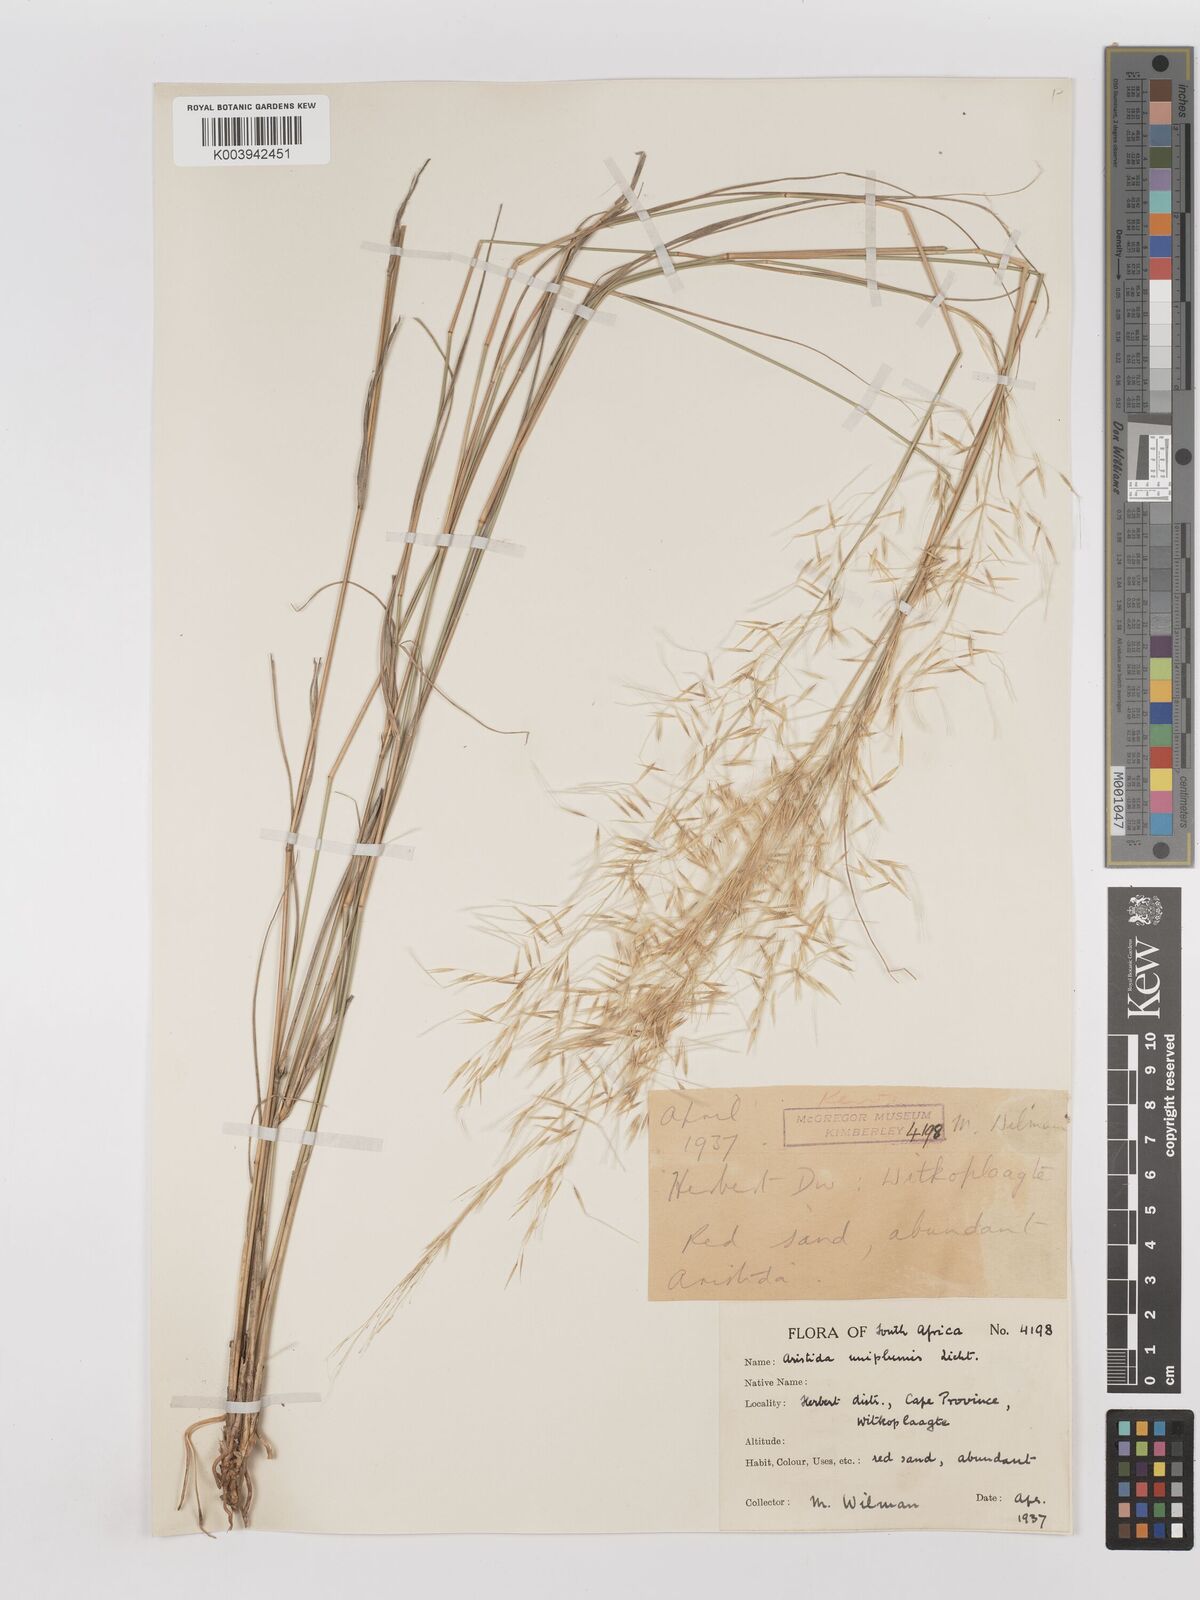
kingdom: Plantae
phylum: Tracheophyta
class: Liliopsida
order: Poales
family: Poaceae
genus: Stipagrostis
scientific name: Stipagrostis uniplumis
